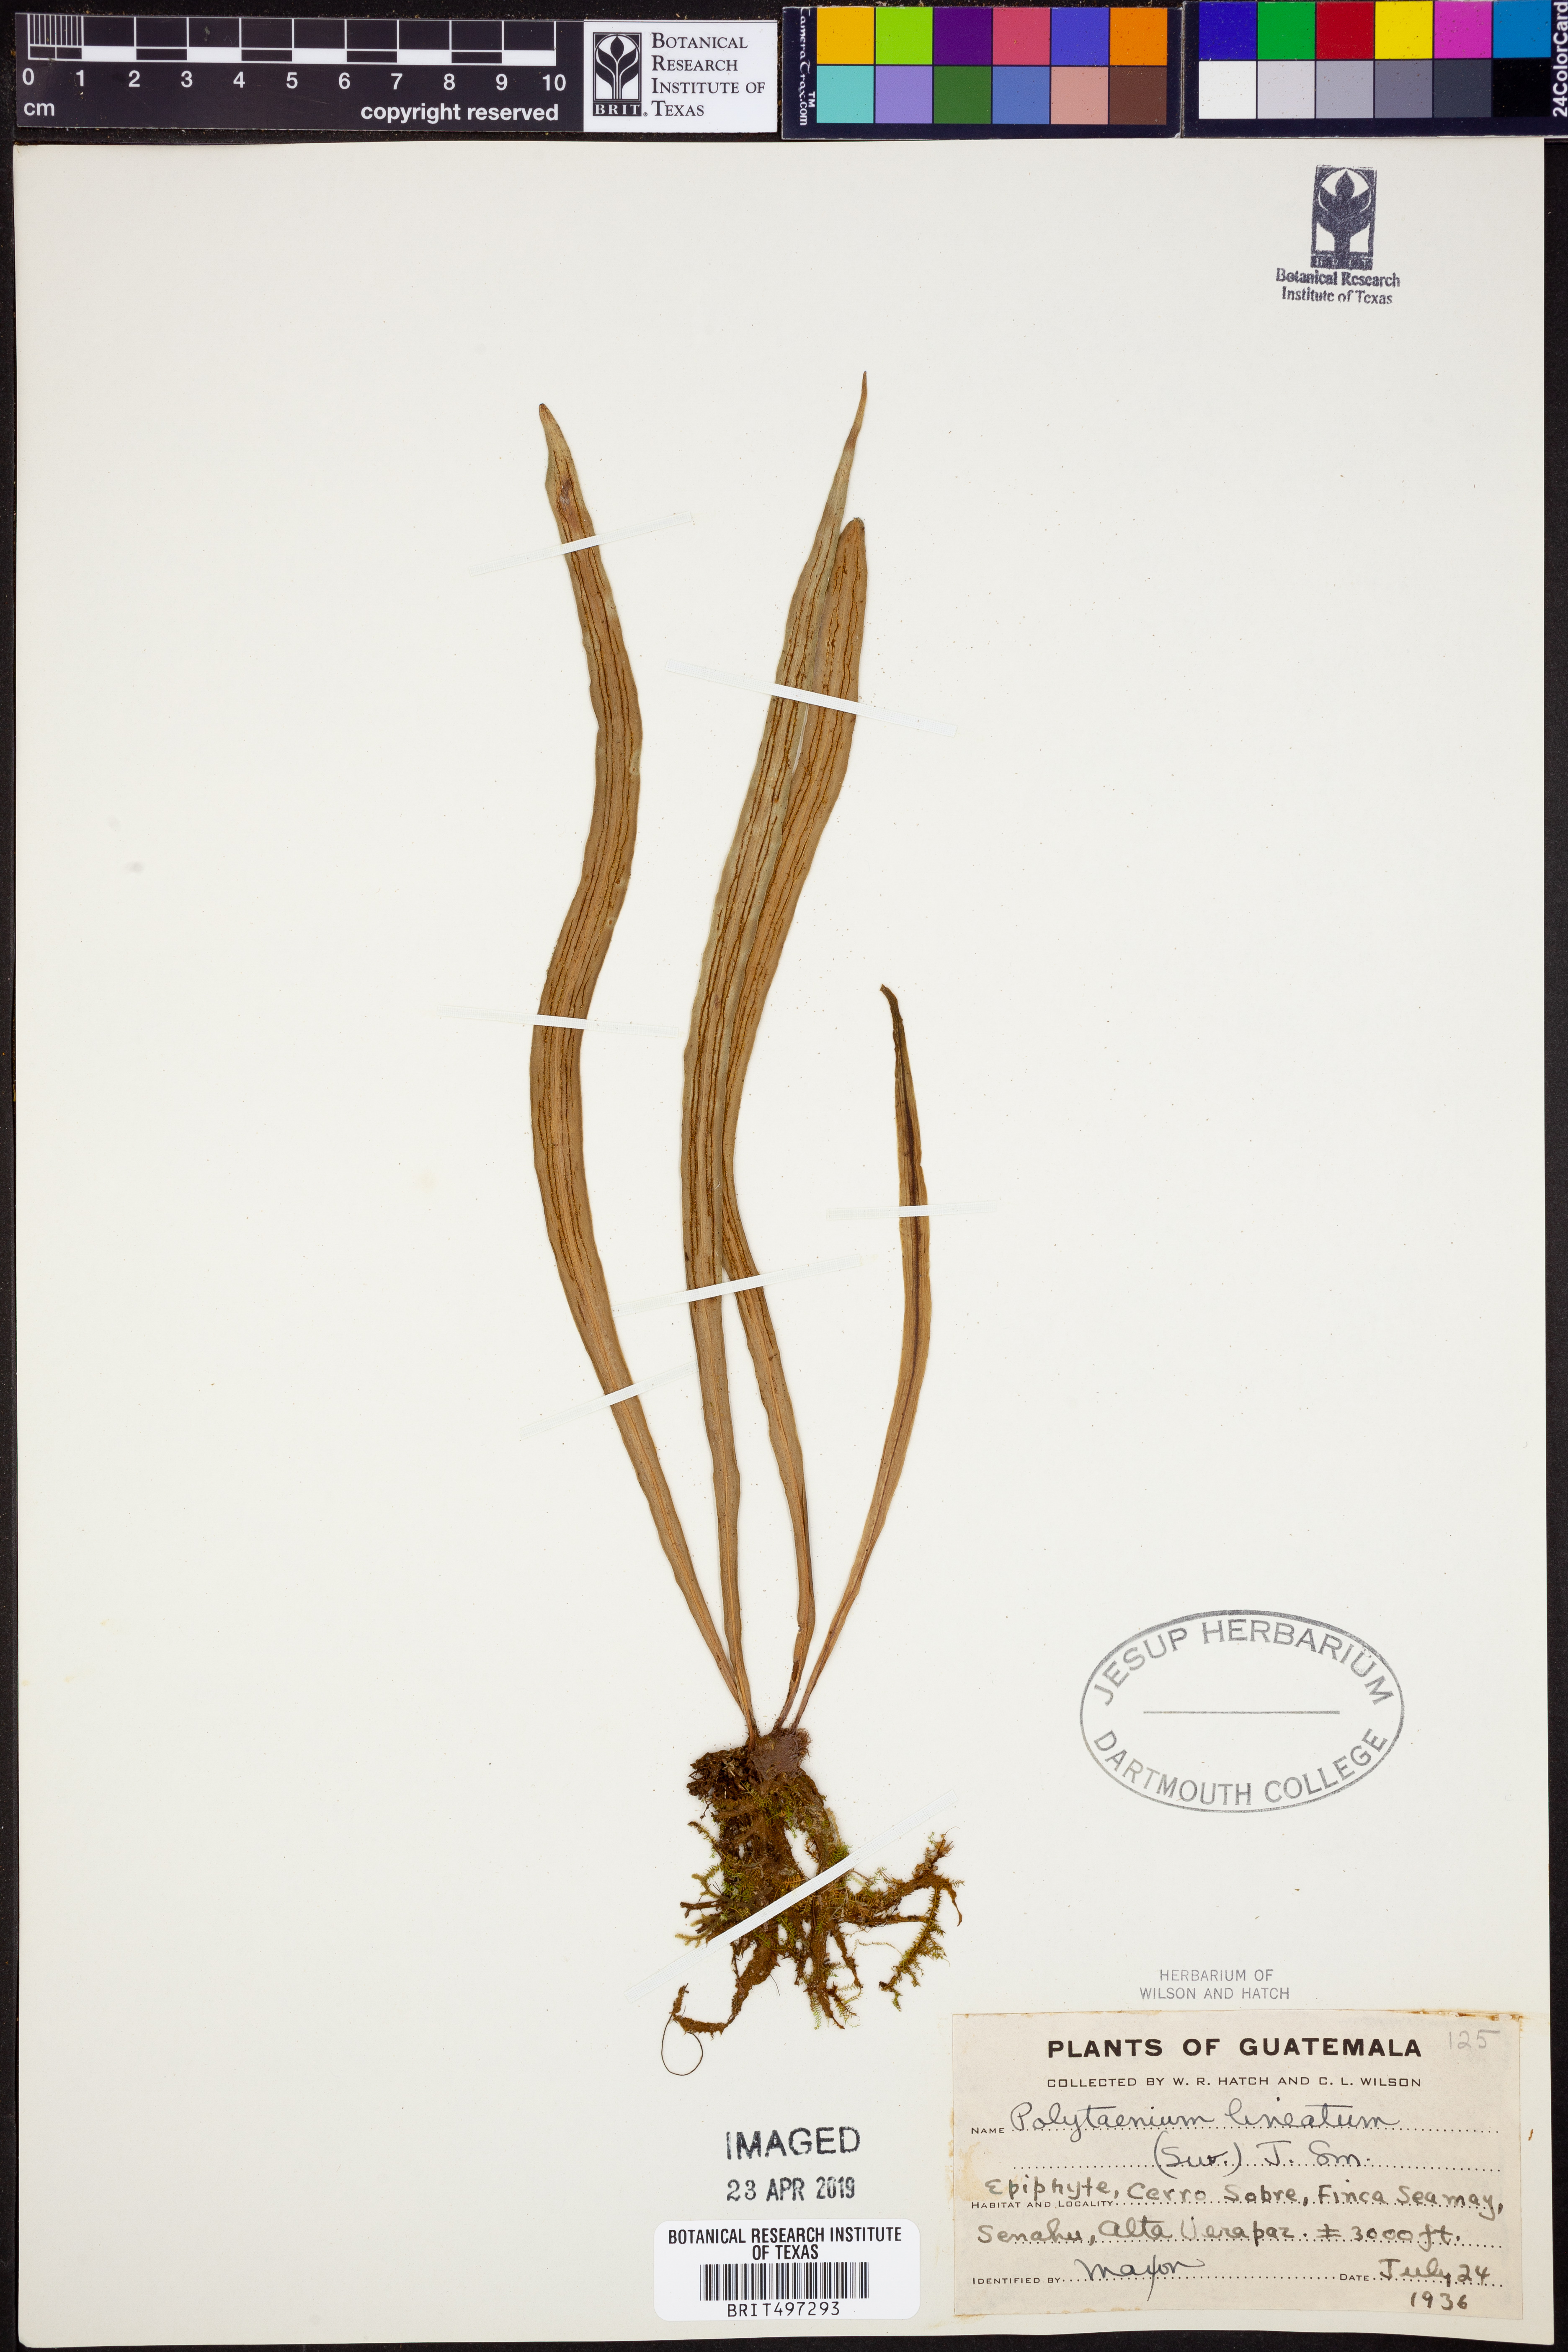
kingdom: Plantae
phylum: Tracheophyta
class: Polypodiopsida
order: Polypodiales
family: Pteridaceae
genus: Polytaenium
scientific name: Polytaenium lineatum
